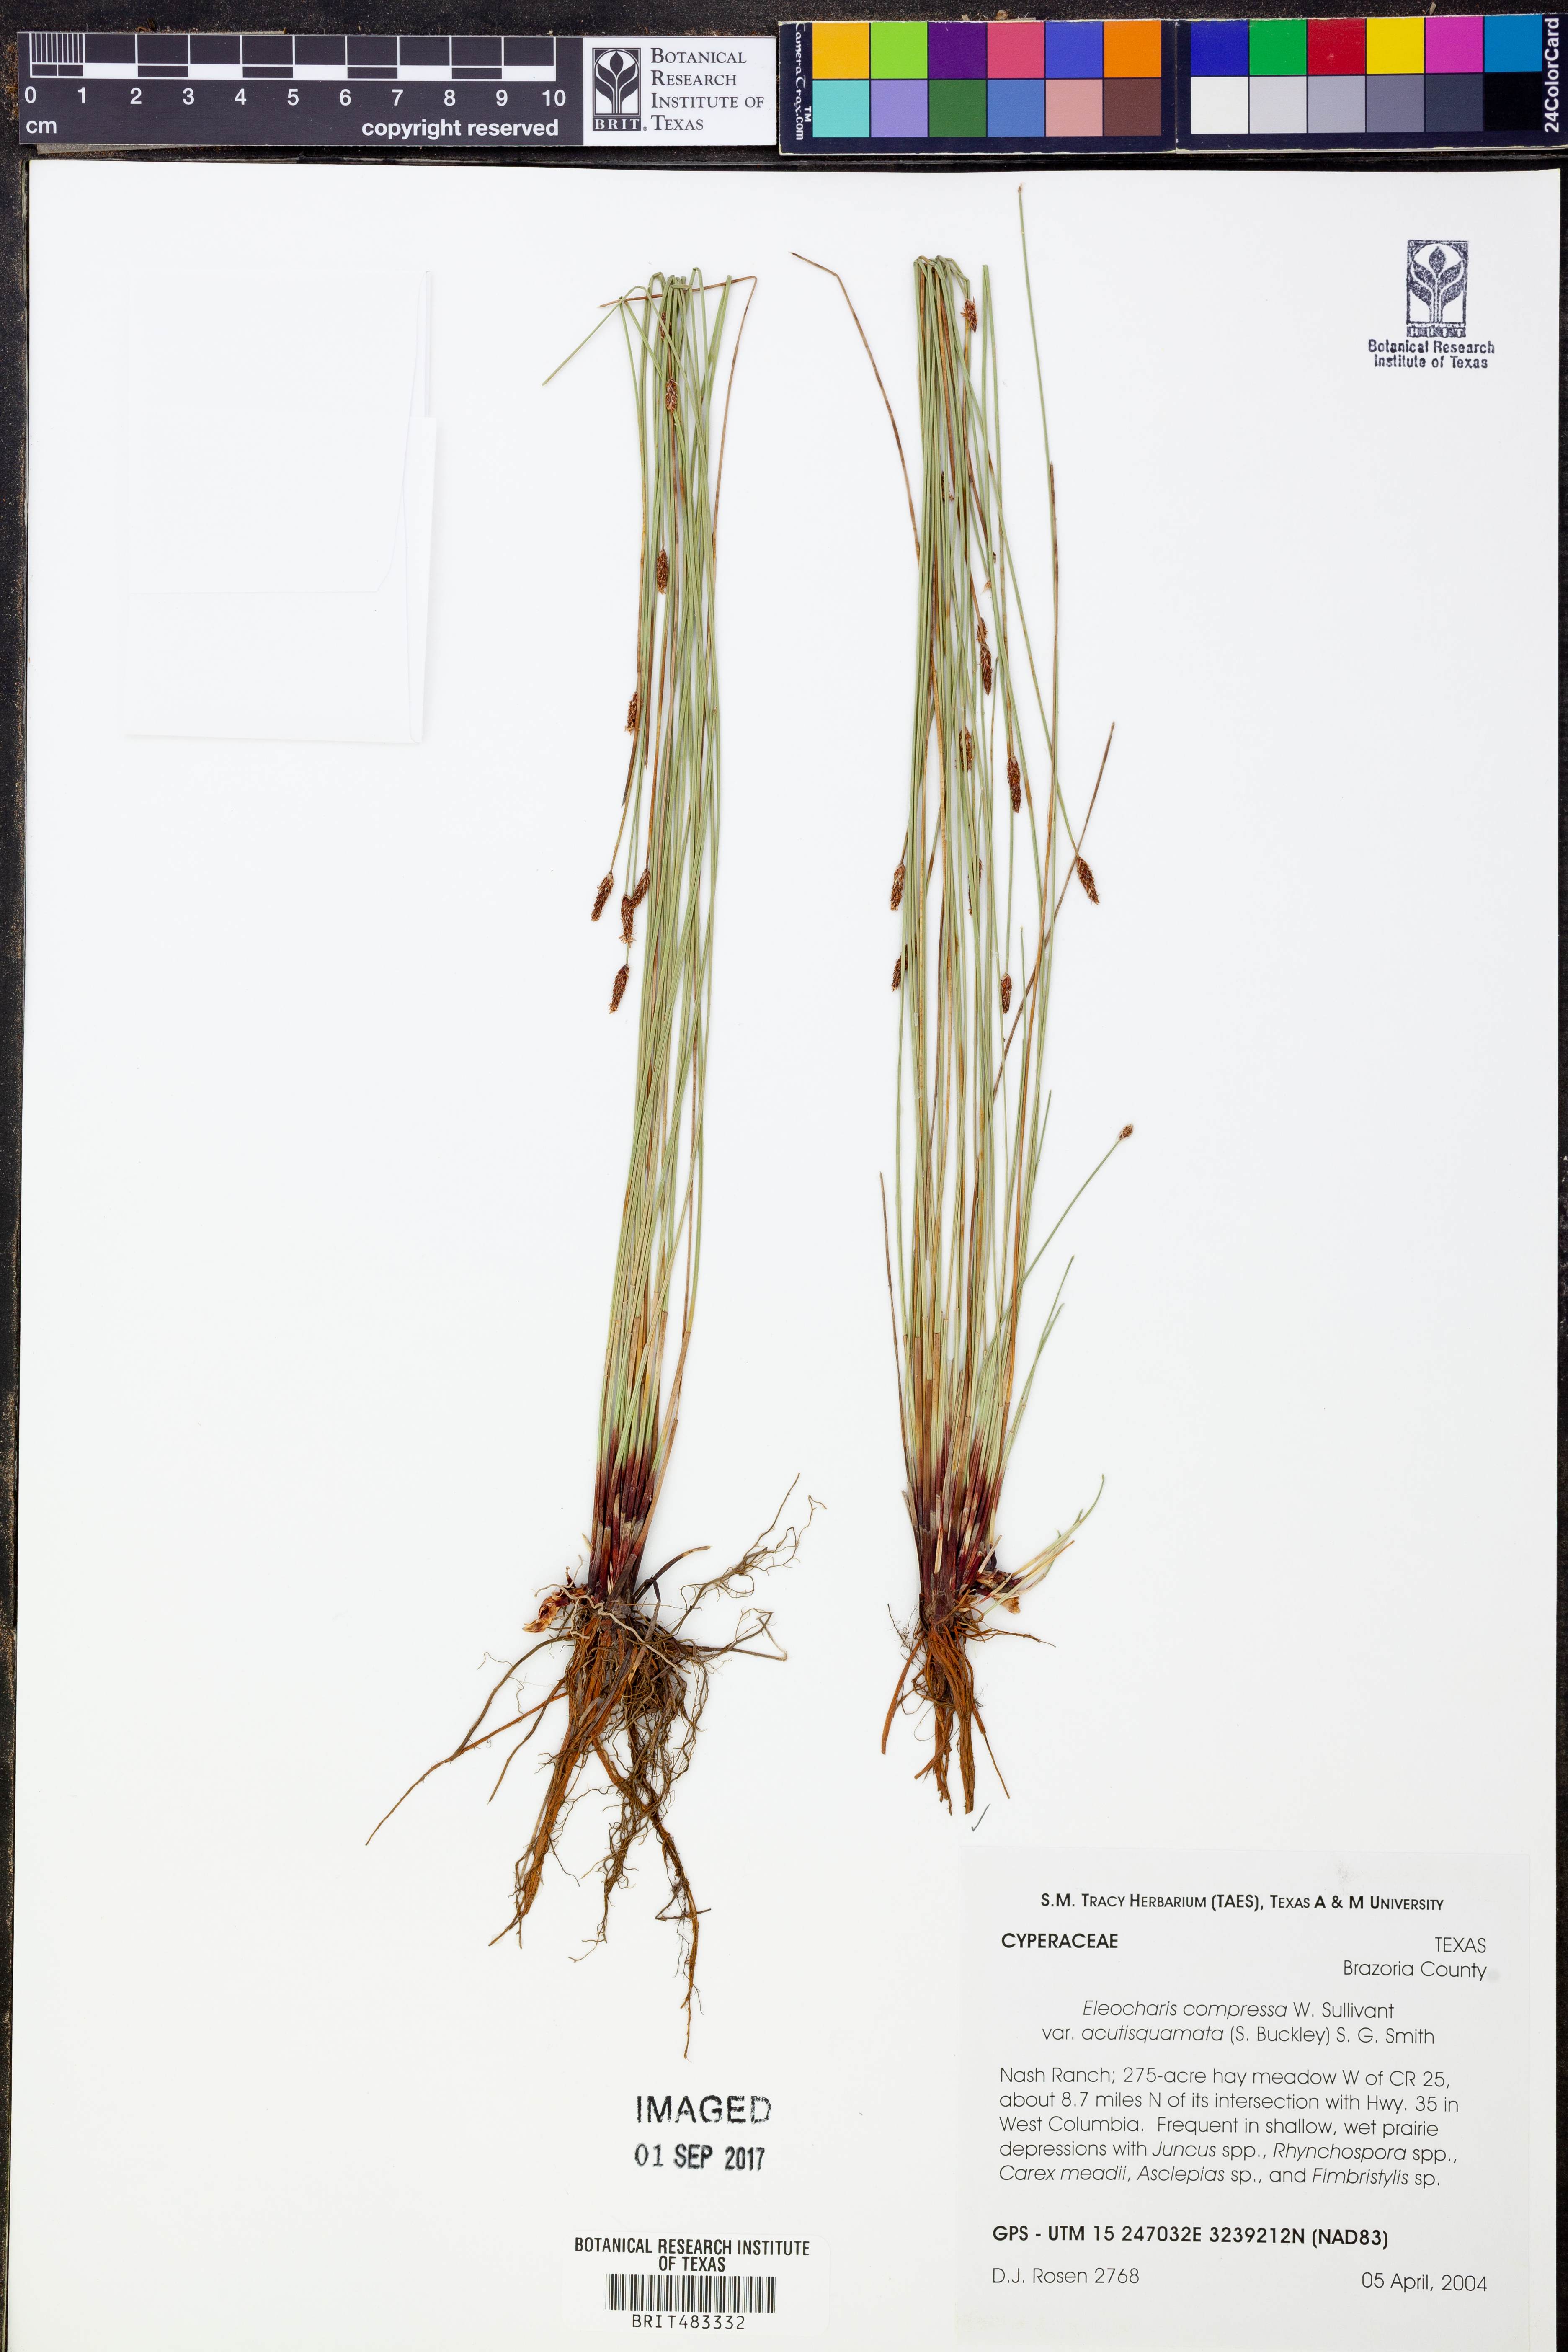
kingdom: Plantae
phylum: Tracheophyta
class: Liliopsida
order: Poales
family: Cyperaceae
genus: Eleocharis
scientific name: Eleocharis compressa
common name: Flat-stem spike-rush
